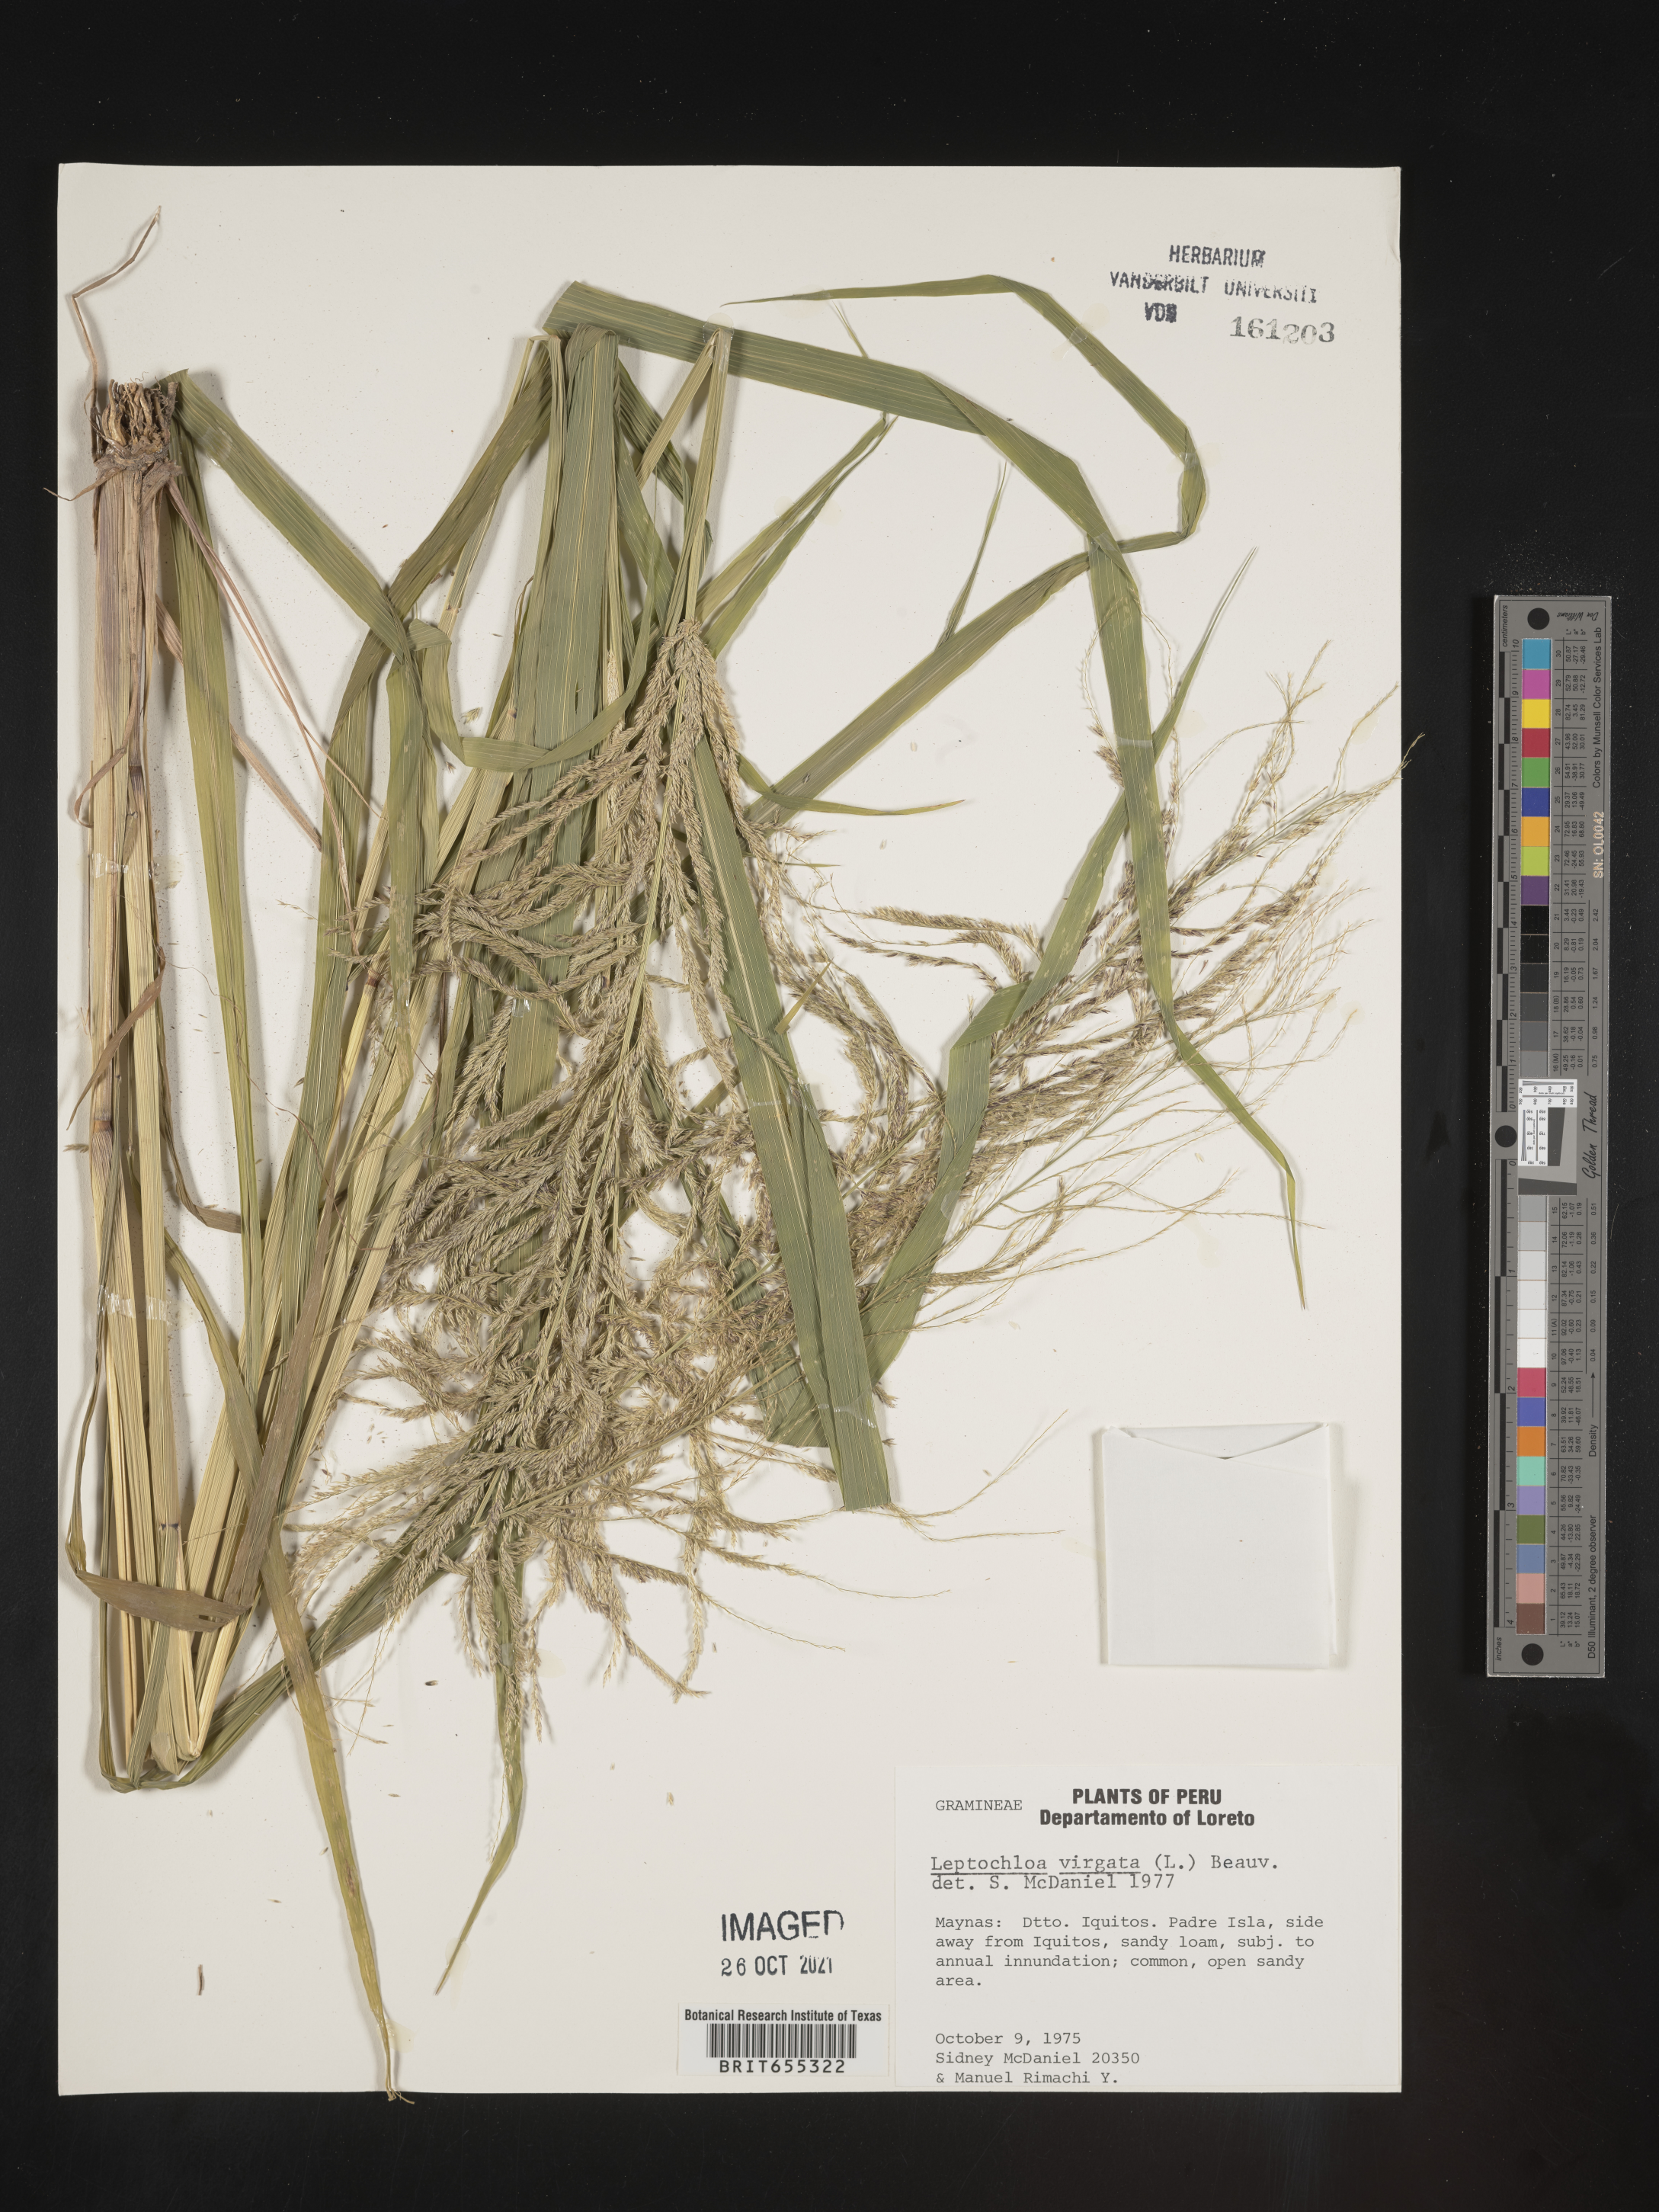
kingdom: Plantae
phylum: Tracheophyta
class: Liliopsida
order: Poales
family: Poaceae
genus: Digitaria
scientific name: Digitaria
